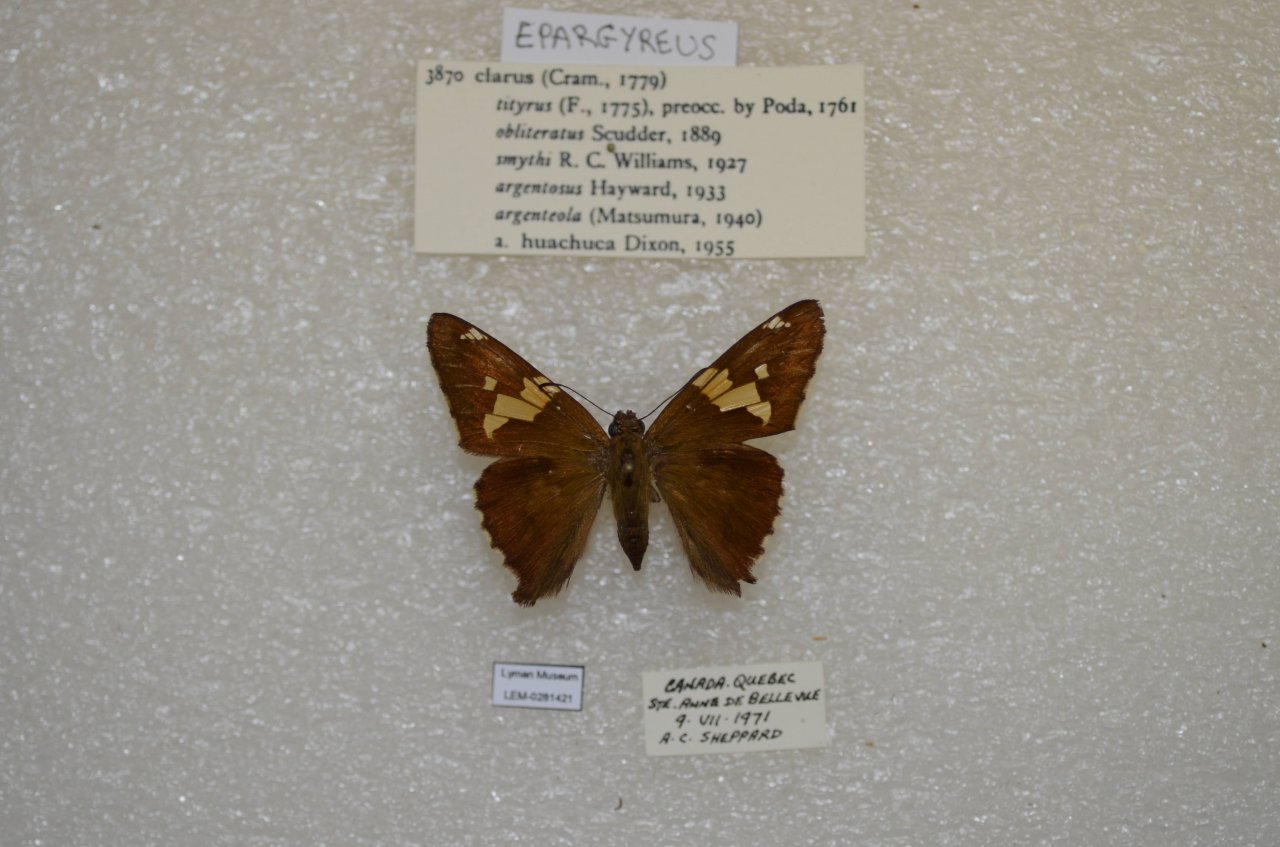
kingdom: Animalia
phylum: Arthropoda
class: Insecta
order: Lepidoptera
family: Hesperiidae
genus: Epargyreus
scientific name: Epargyreus clarus
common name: Silver-spotted Skipper
